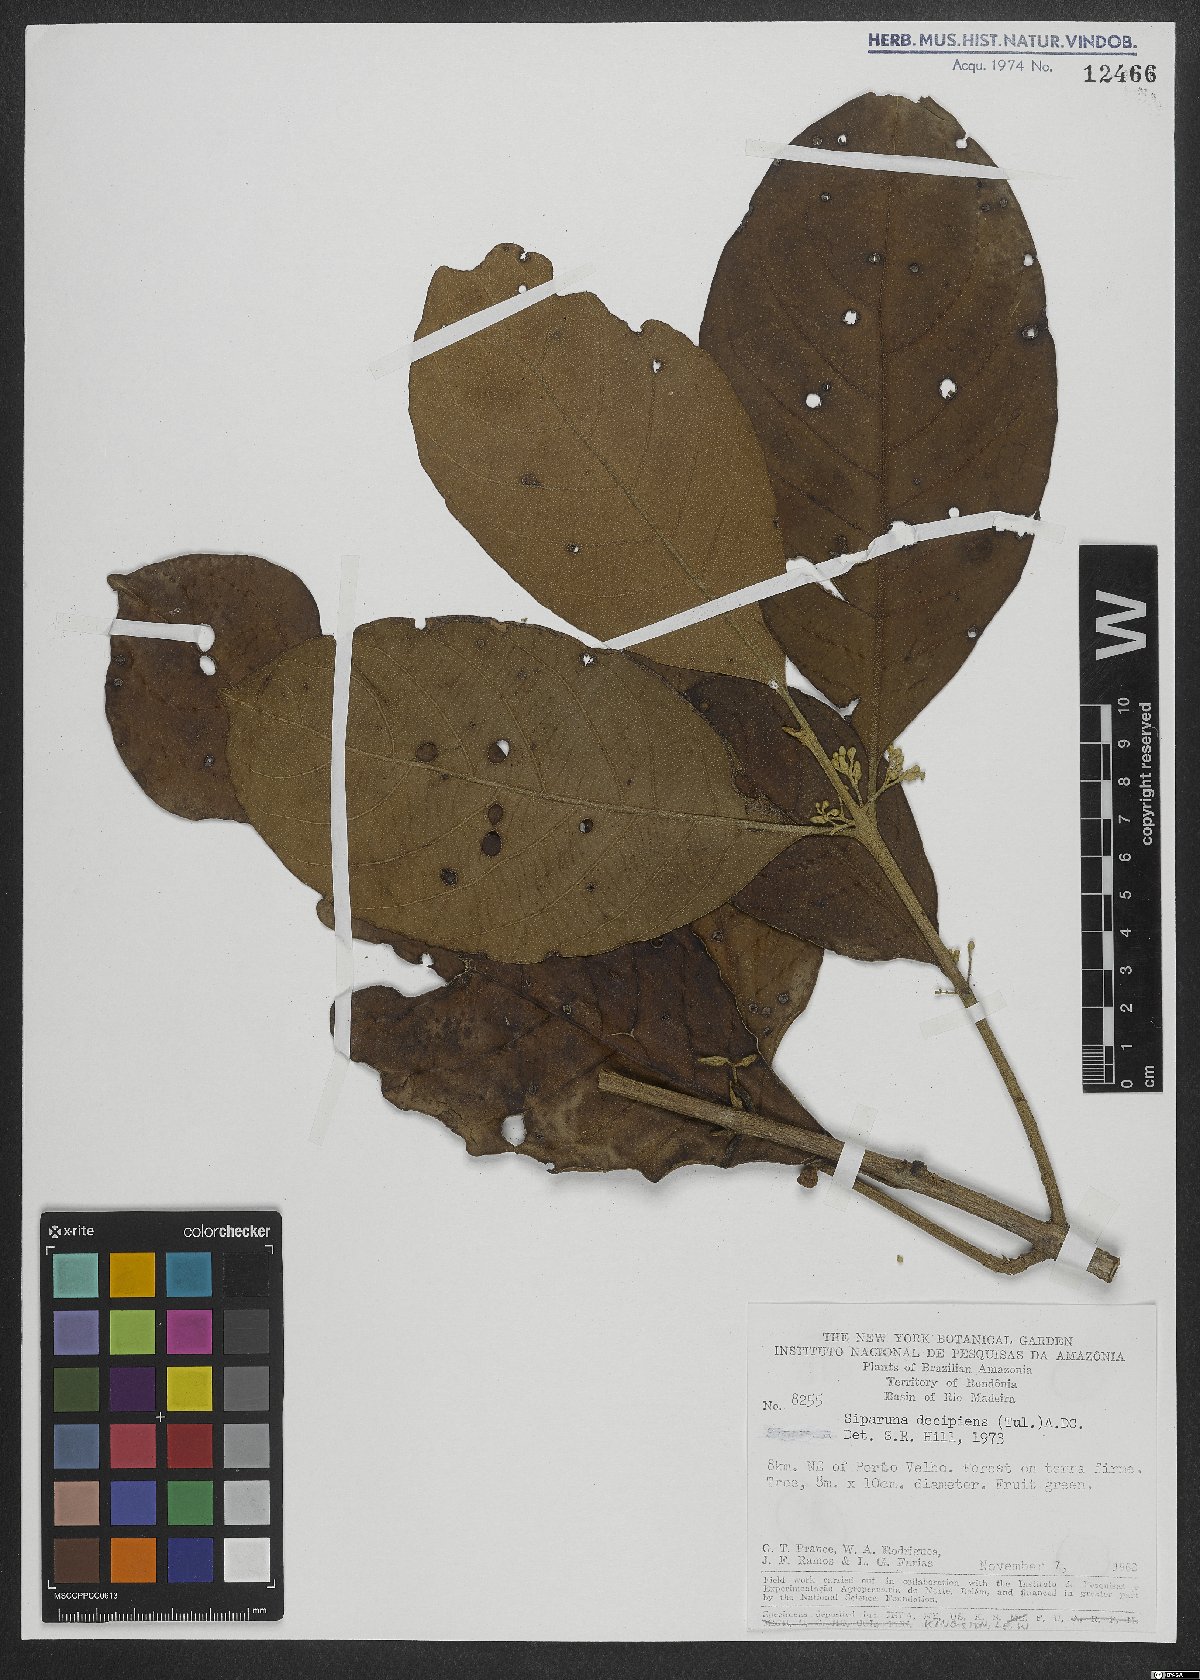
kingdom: Plantae
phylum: Tracheophyta
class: Magnoliopsida
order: Laurales
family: Siparunaceae
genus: Siparuna
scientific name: Siparuna decipiens
